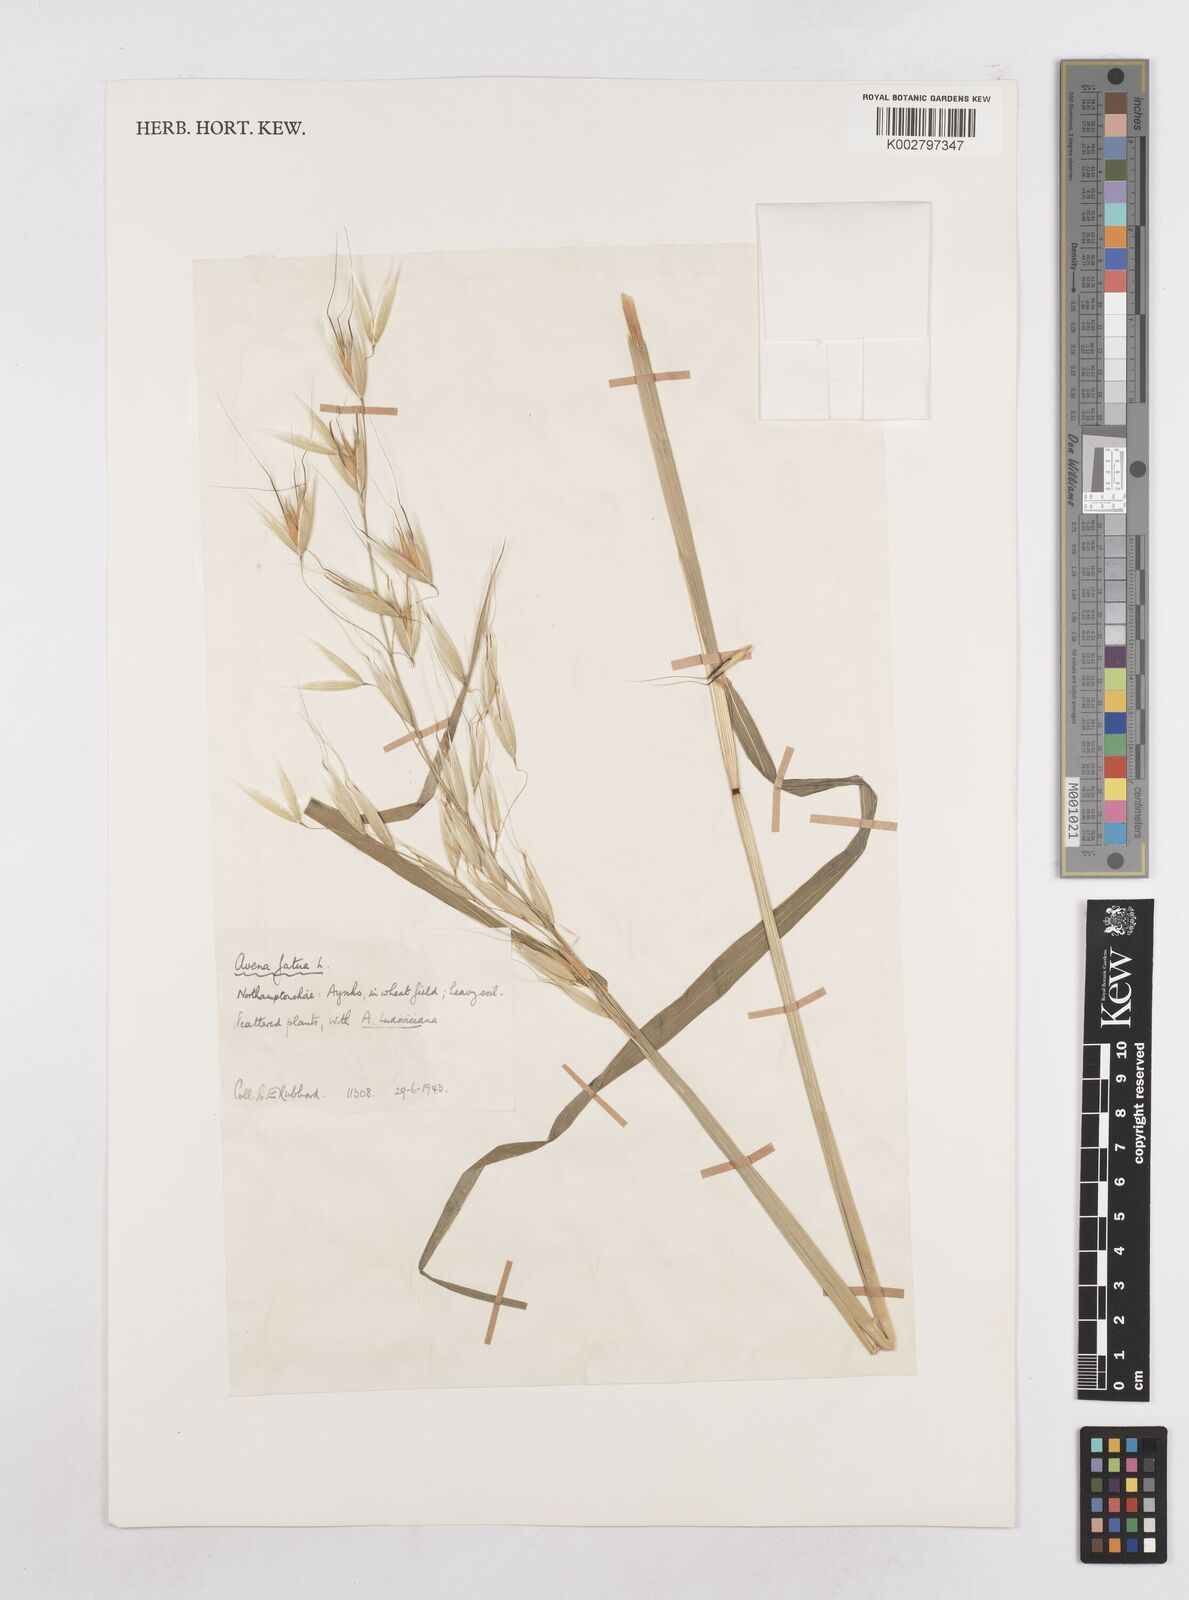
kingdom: Plantae
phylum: Tracheophyta
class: Liliopsida
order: Poales
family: Poaceae
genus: Avena
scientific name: Avena fatua
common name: Wild oat
